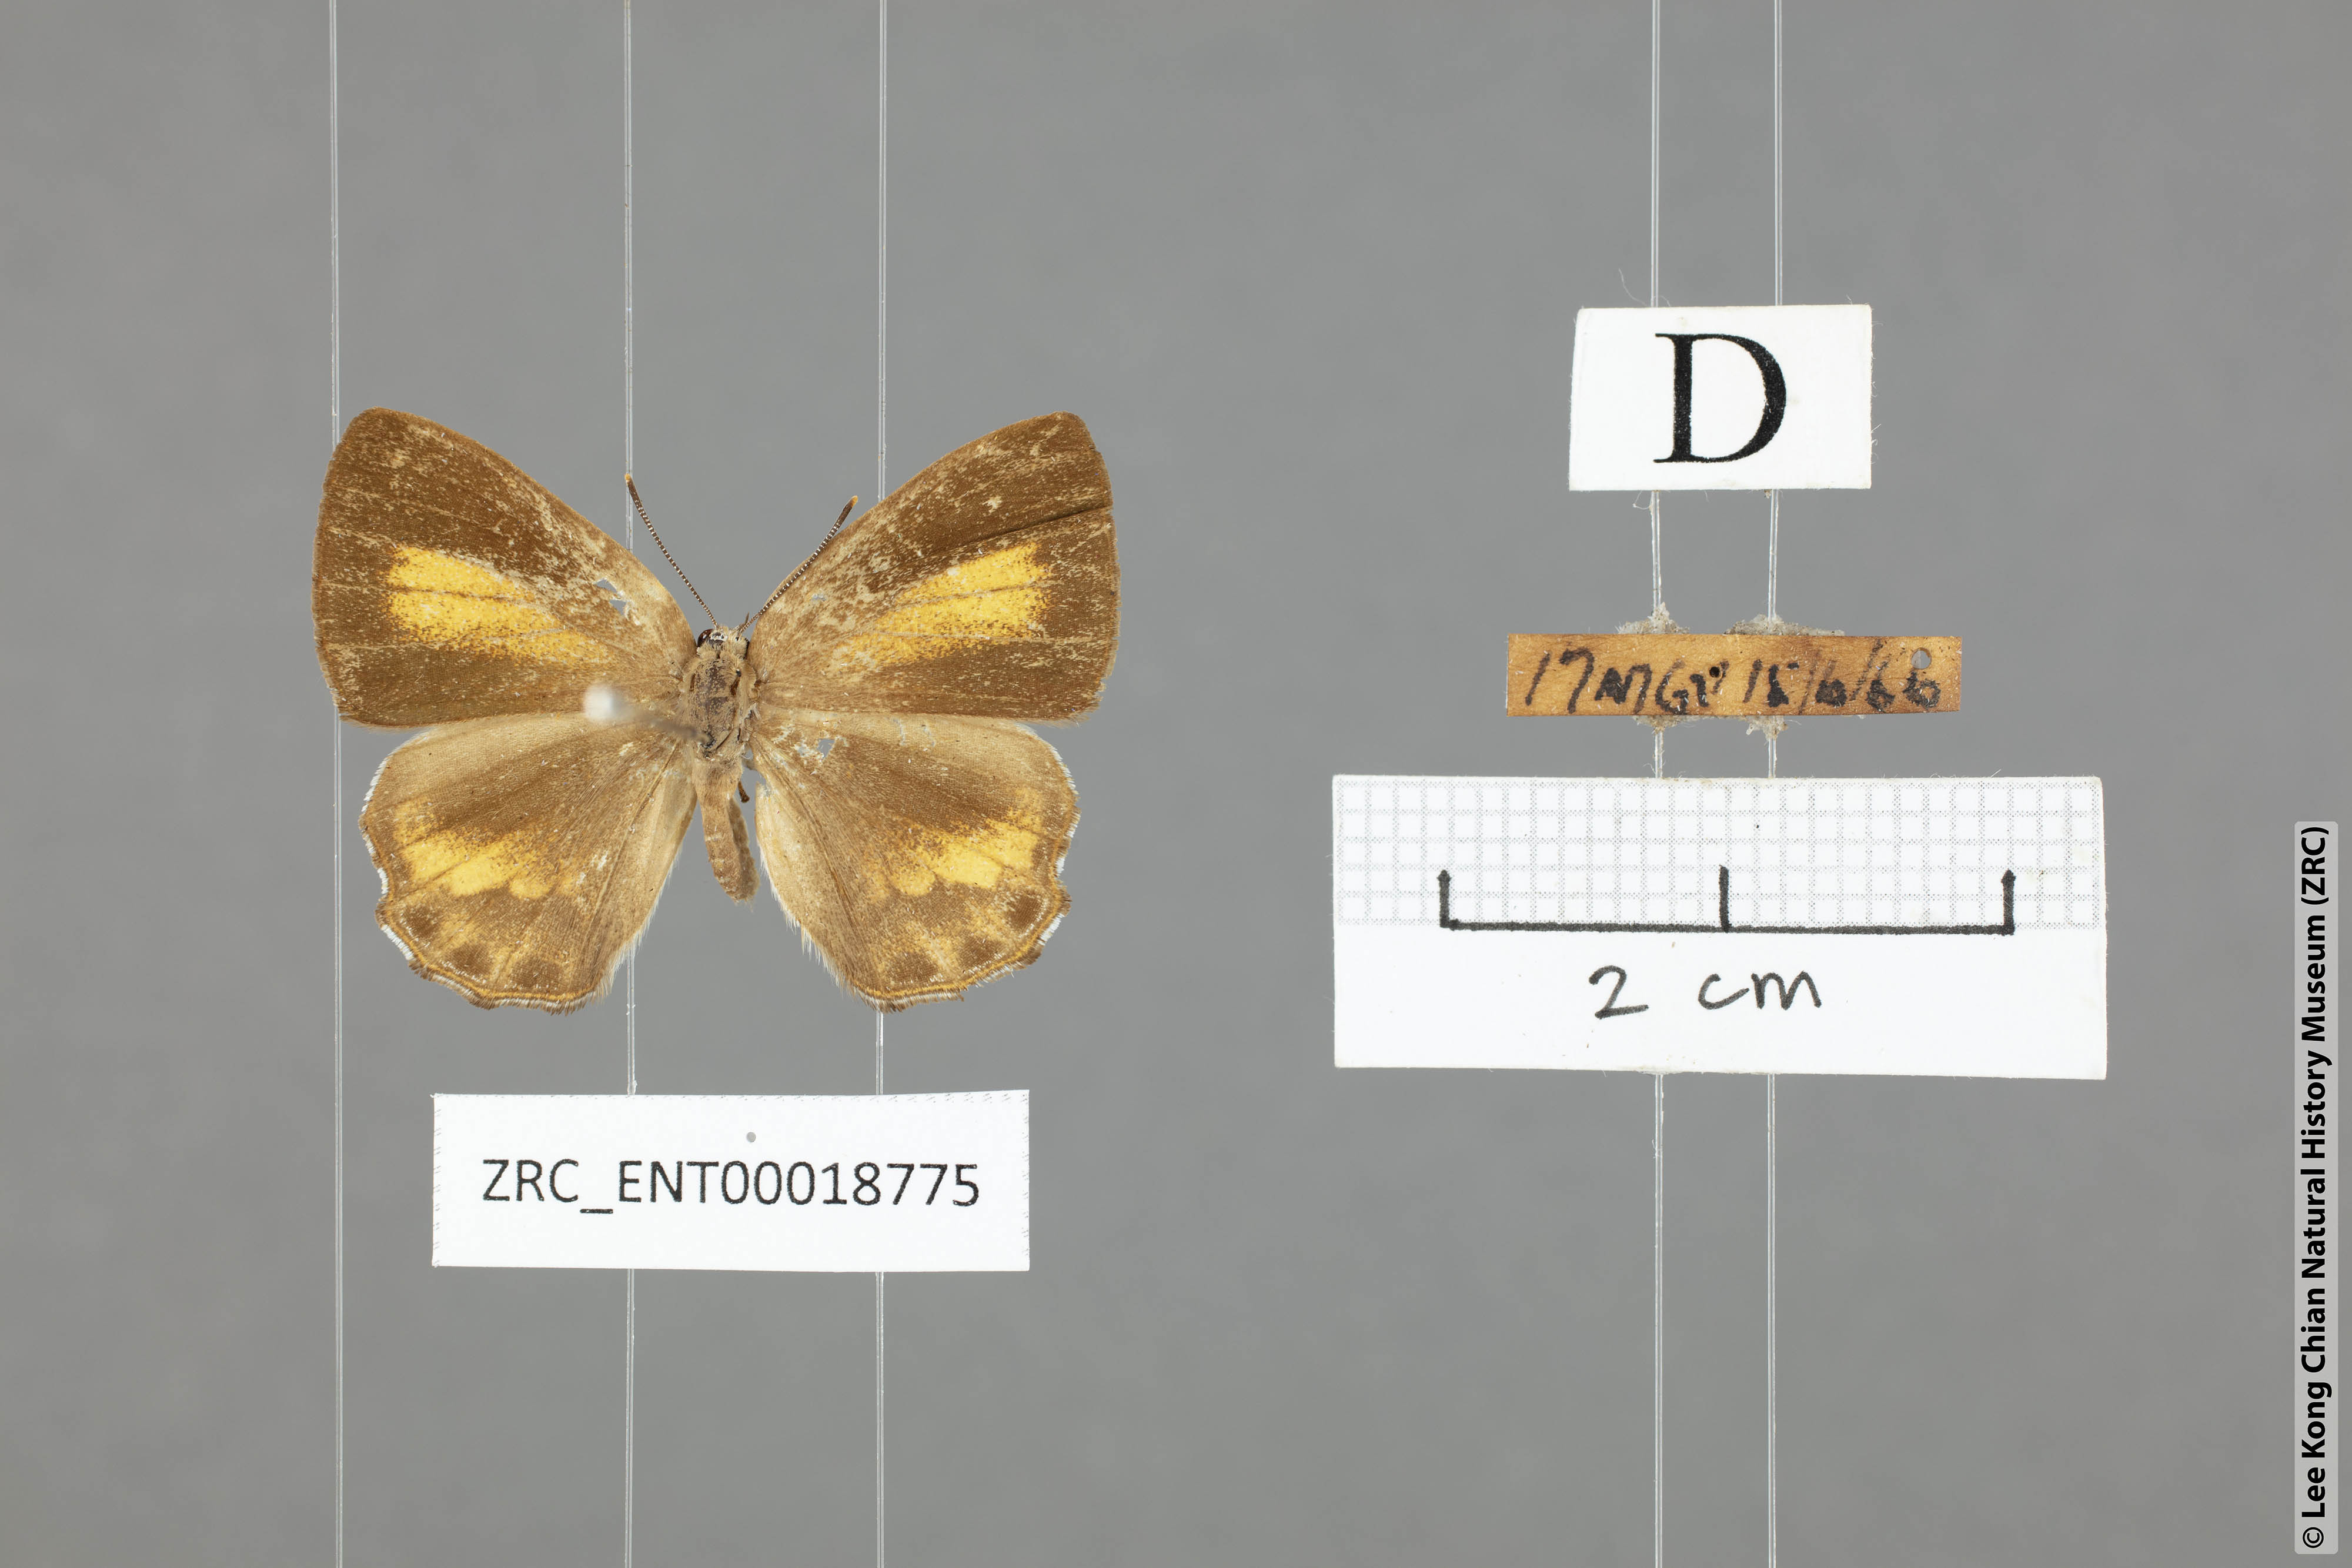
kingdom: Animalia
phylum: Arthropoda
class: Insecta
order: Lepidoptera
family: Lycaenidae
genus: Poritia
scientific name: Poritia erycinoides
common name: Blue gem
